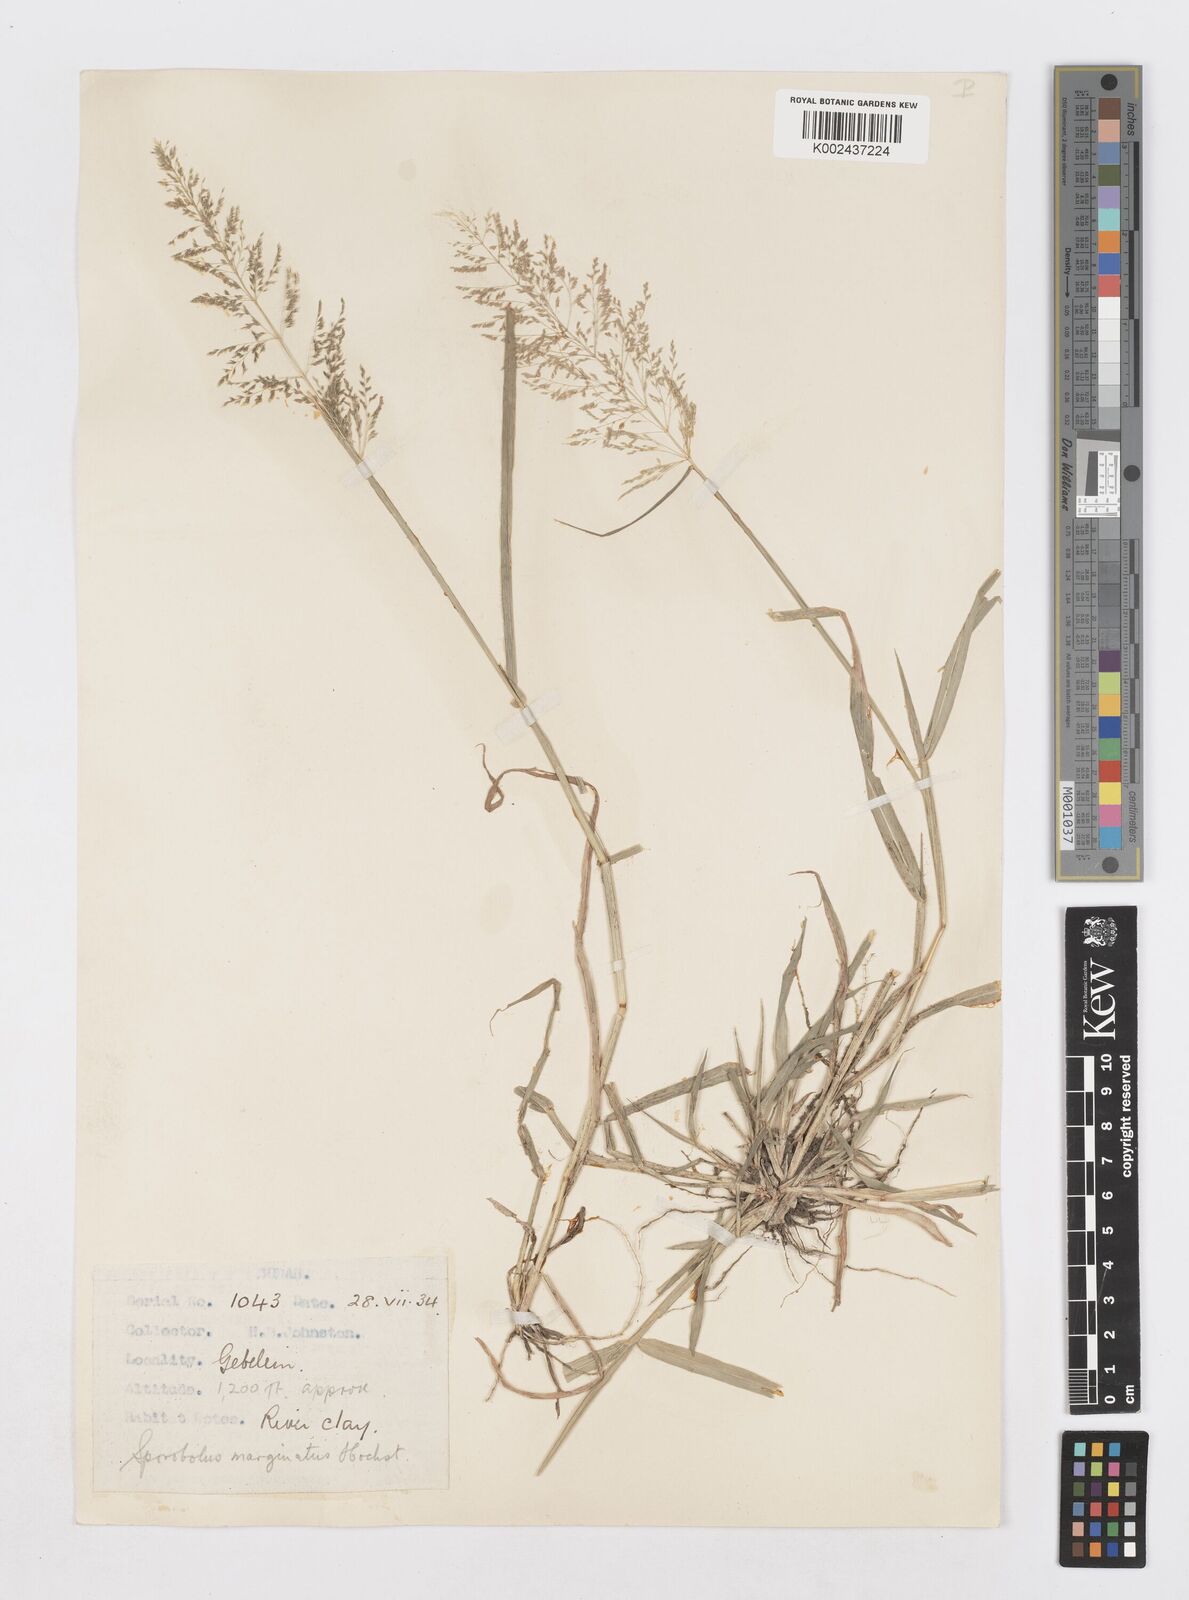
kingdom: Plantae
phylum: Tracheophyta
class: Liliopsida
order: Poales
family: Poaceae
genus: Sporobolus
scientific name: Sporobolus ioclados
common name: Pan dropseed
